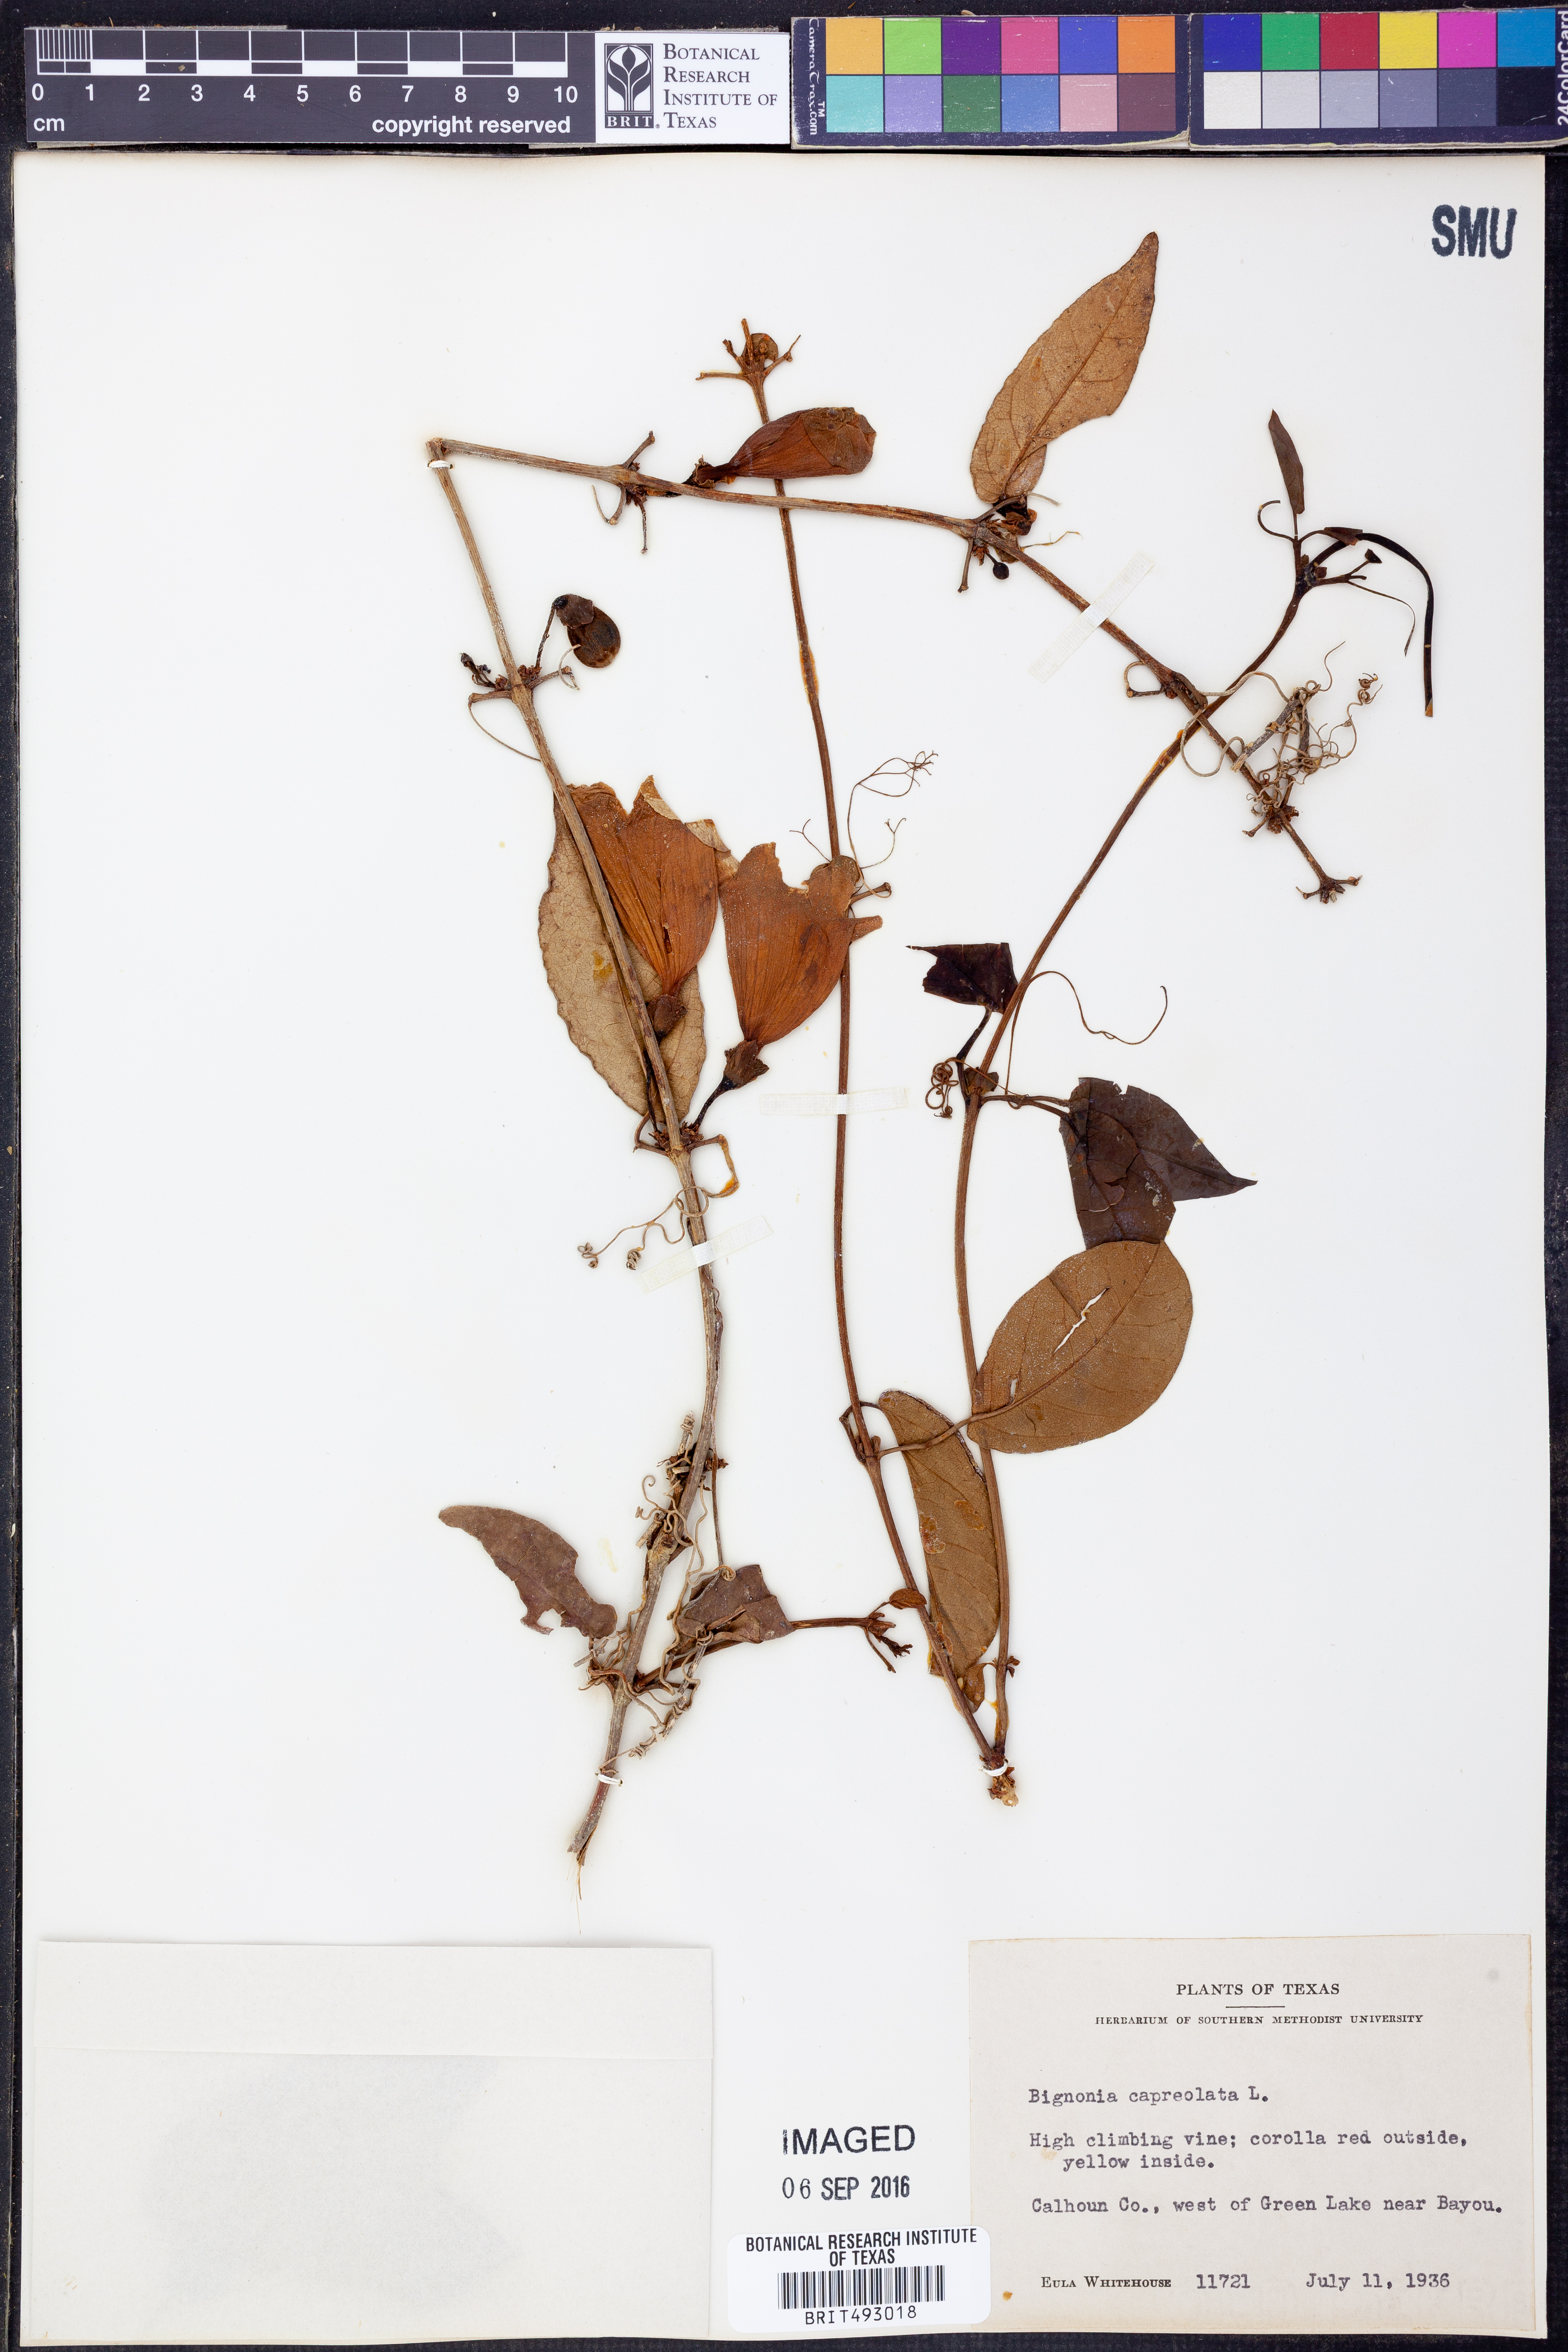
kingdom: Plantae
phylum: Tracheophyta
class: Magnoliopsida
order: Lamiales
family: Bignoniaceae
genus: Bignonia
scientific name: Bignonia capreolata
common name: Crossvine
